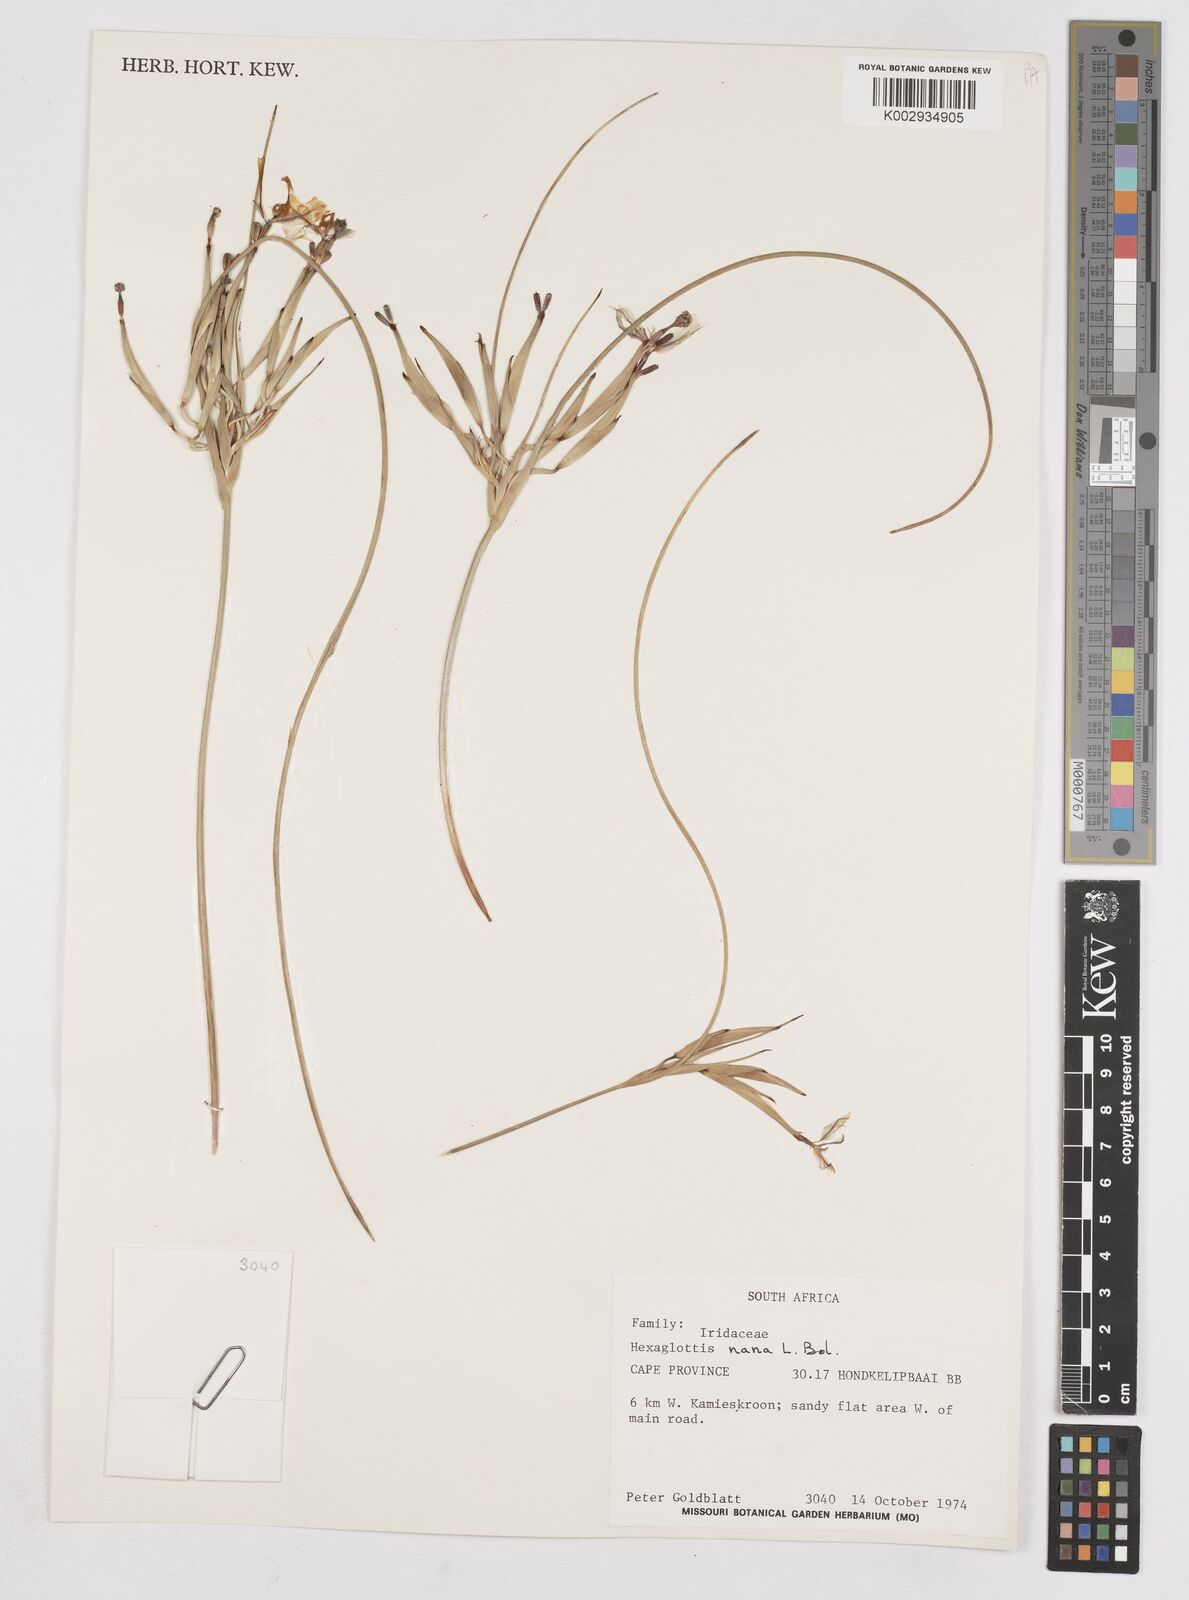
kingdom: Plantae
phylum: Tracheophyta
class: Liliopsida
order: Asparagales
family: Iridaceae
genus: Moraea
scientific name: Moraea nana
